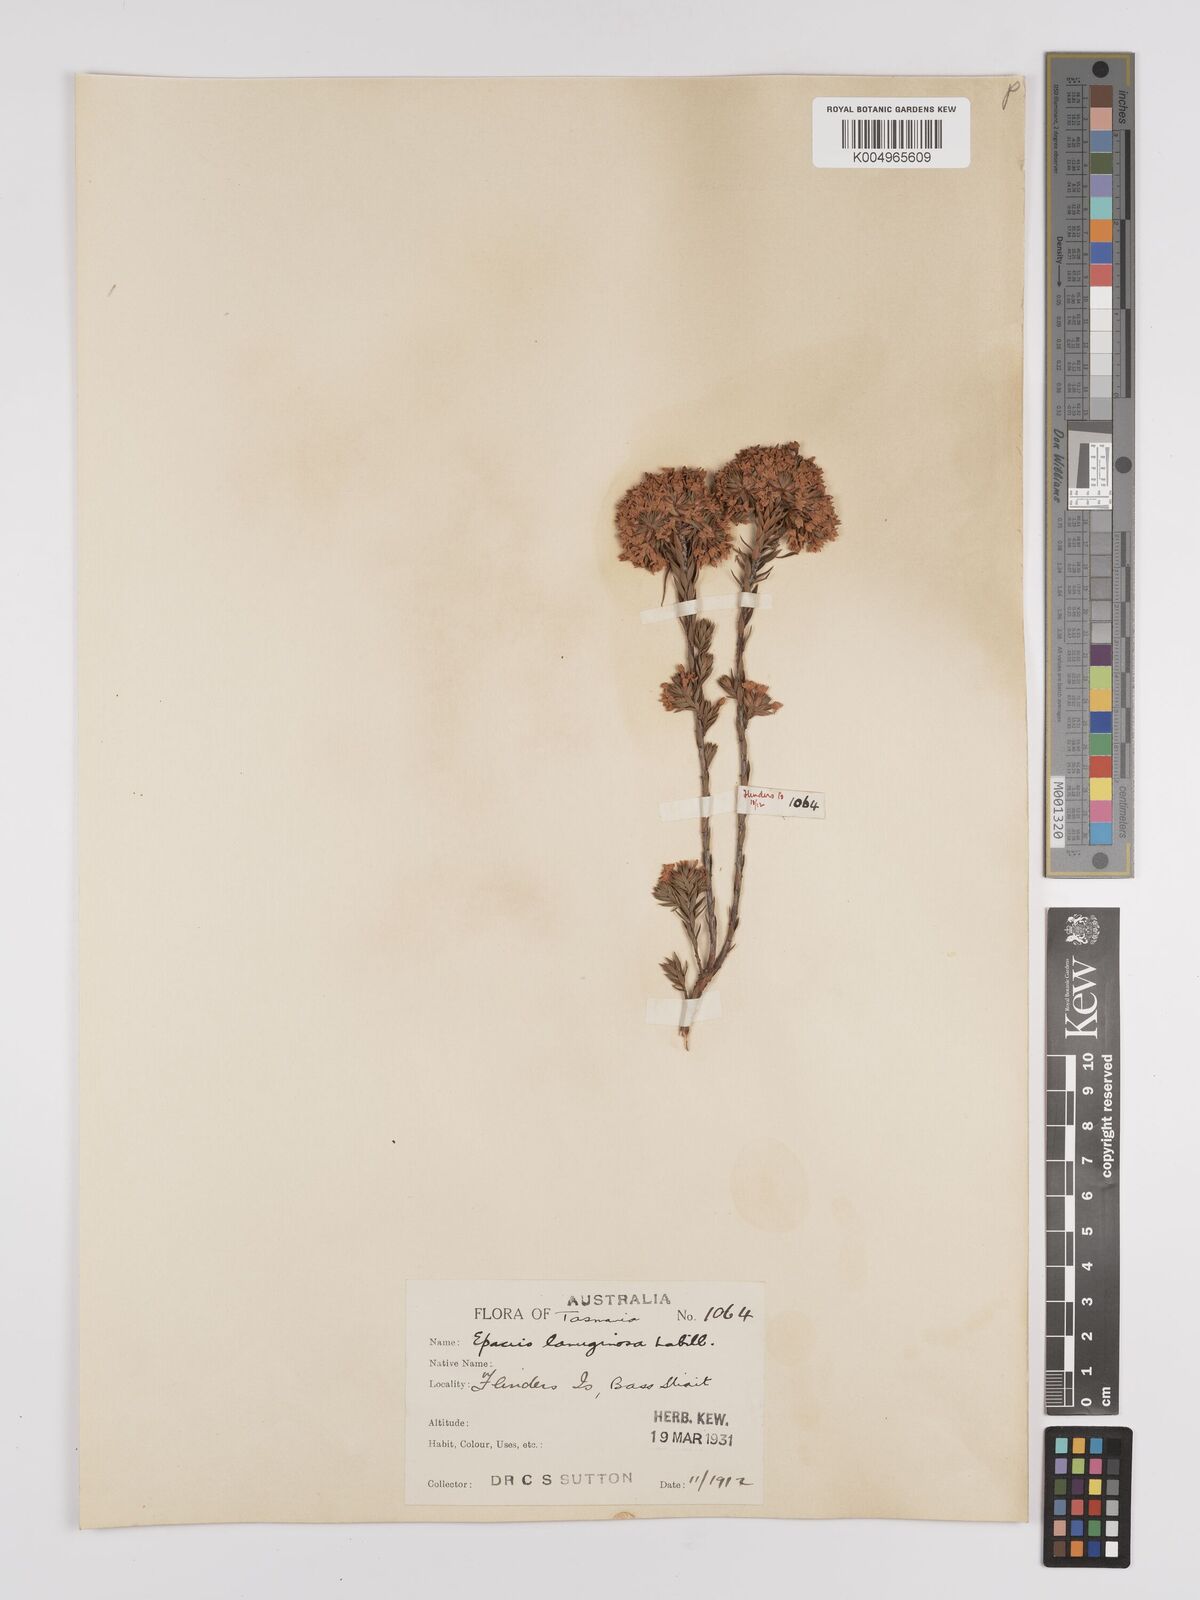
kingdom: Plantae
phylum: Tracheophyta
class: Magnoliopsida
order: Ericales
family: Ericaceae
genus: Epacris
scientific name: Epacris lanuginosa
